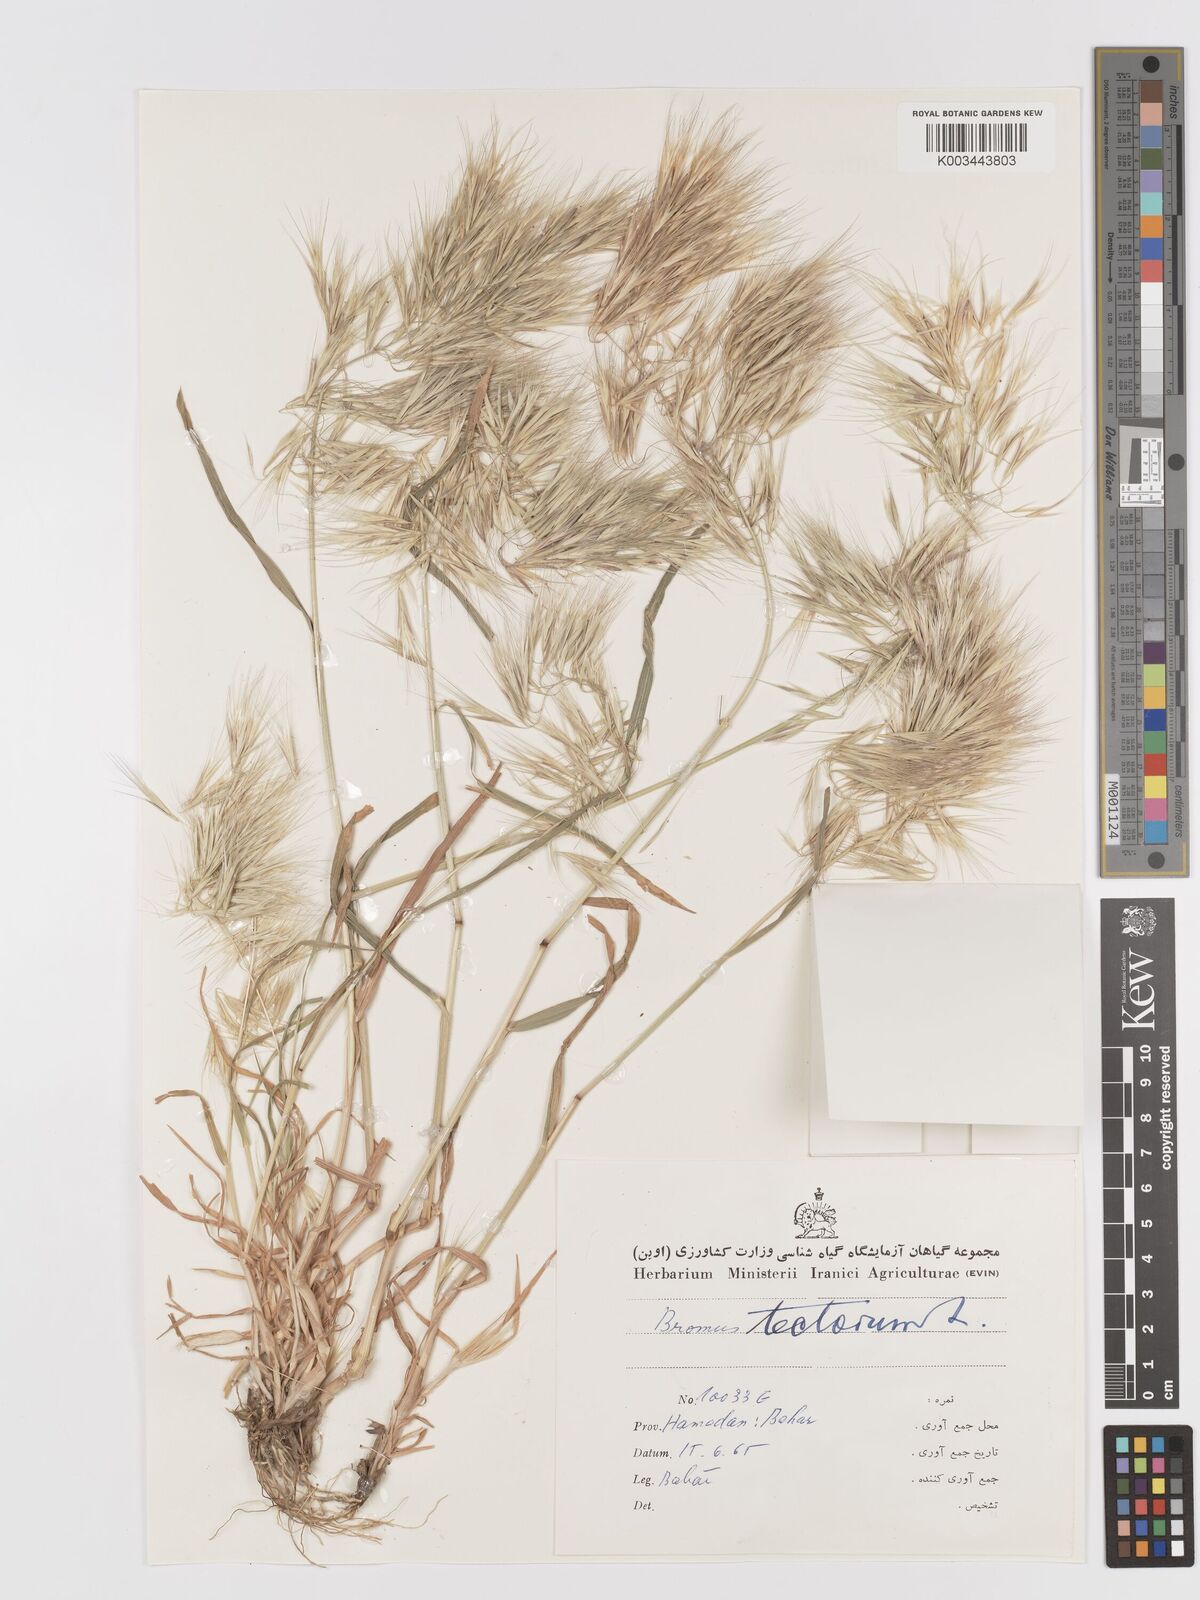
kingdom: Plantae
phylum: Tracheophyta
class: Liliopsida
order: Poales
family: Poaceae
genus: Bromus
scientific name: Bromus tectorum
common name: Cheatgrass
